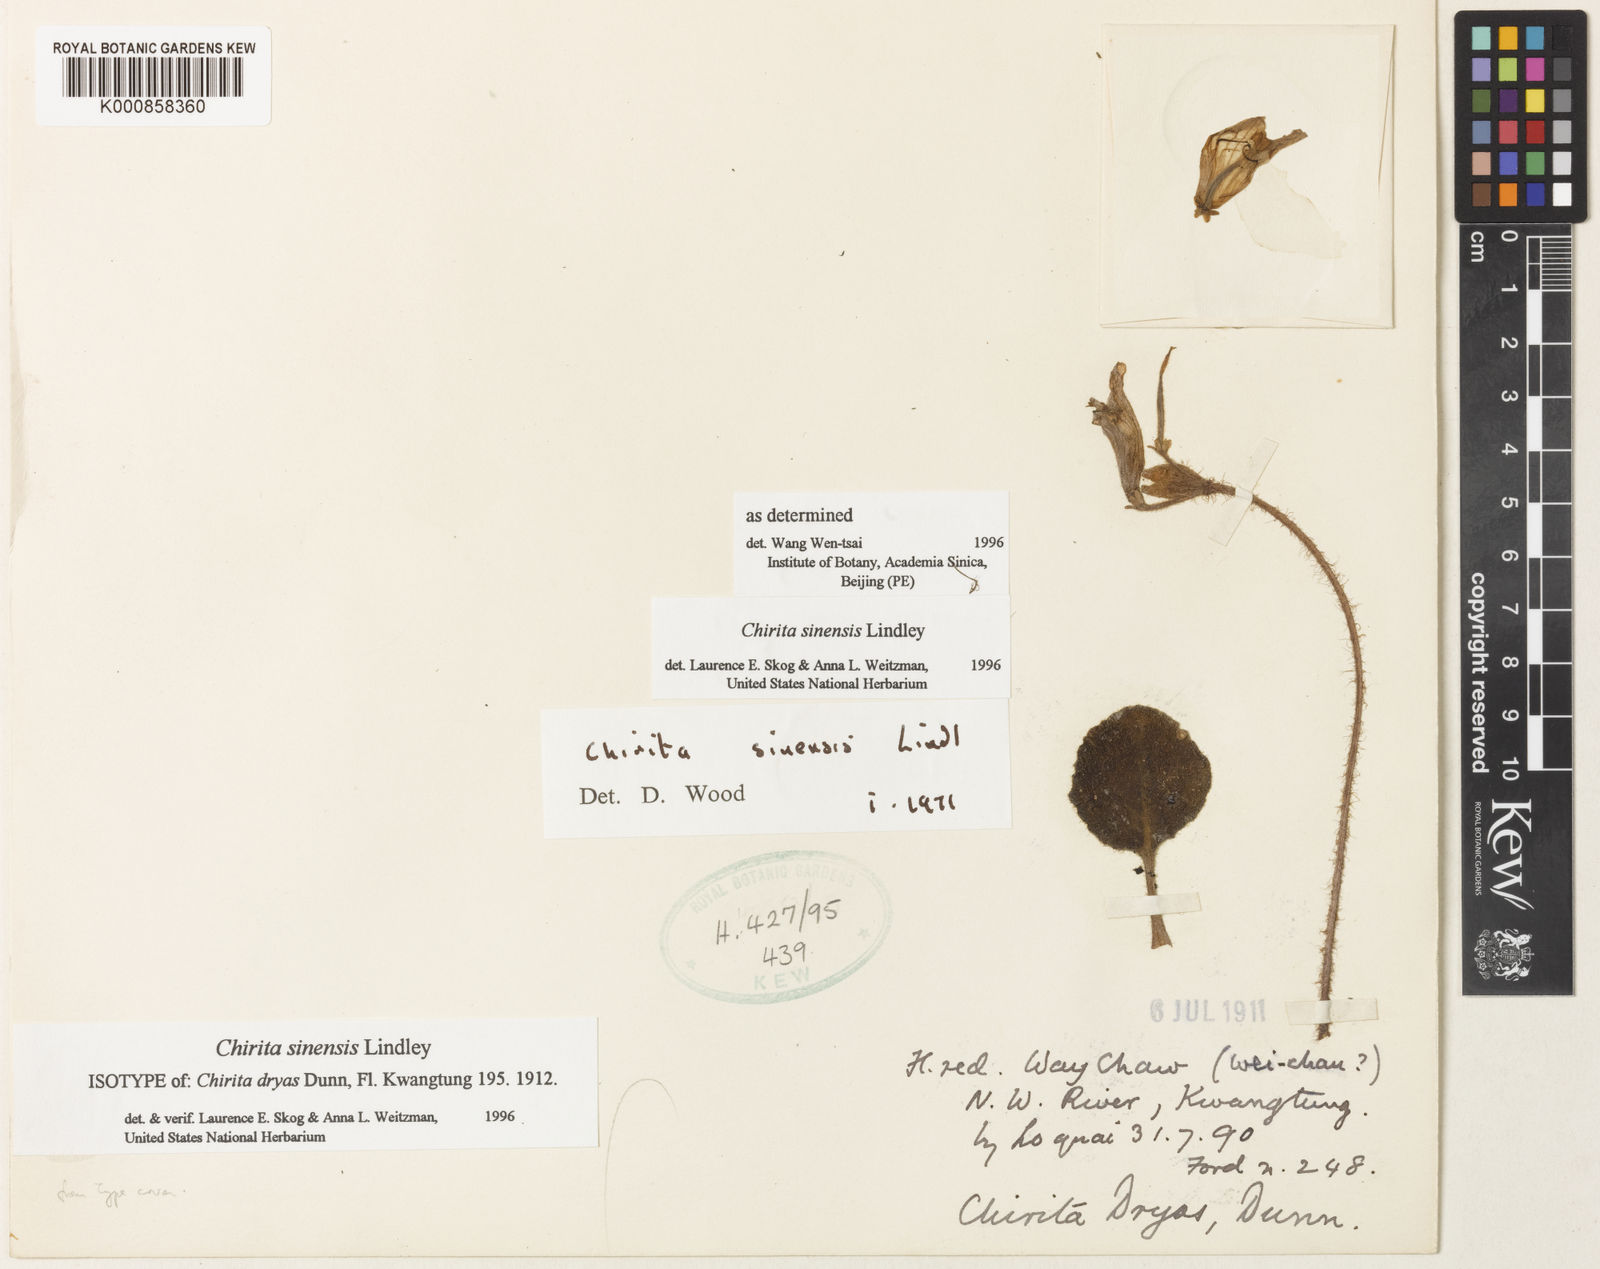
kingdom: Plantae
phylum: Tracheophyta
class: Magnoliopsida
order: Lamiales
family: Gesneriaceae
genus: Primulina
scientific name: Primulina dryas
